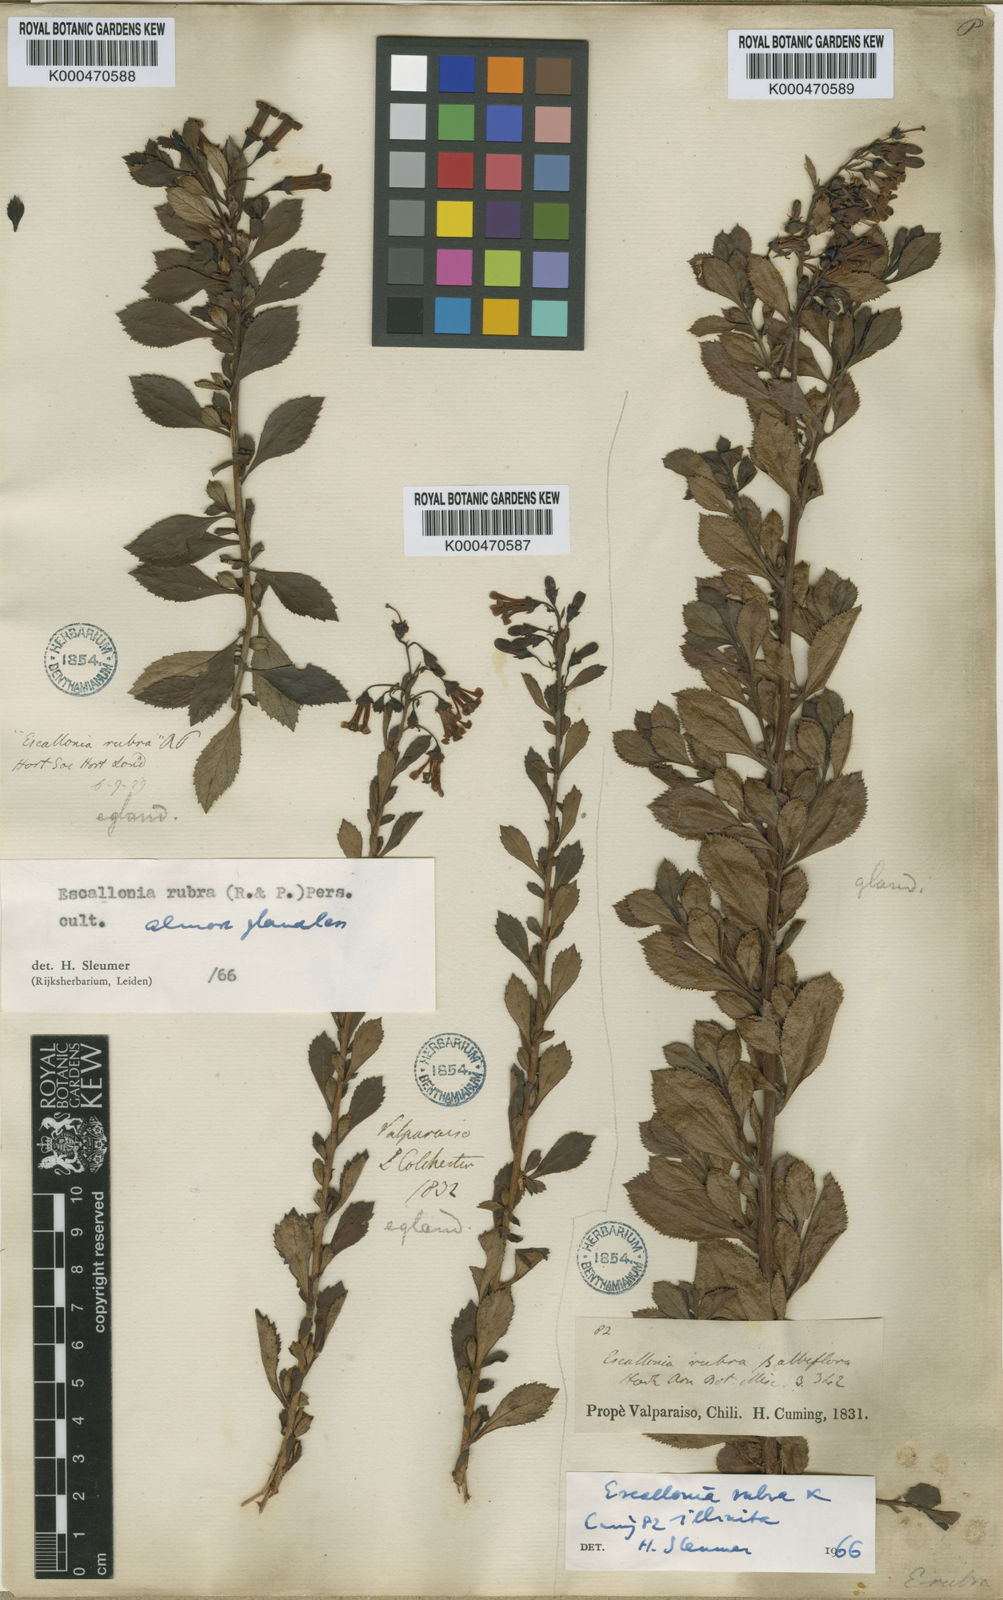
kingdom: Plantae
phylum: Tracheophyta
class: Magnoliopsida
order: Escalloniales
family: Escalloniaceae
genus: Escallonia
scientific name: Escallonia
